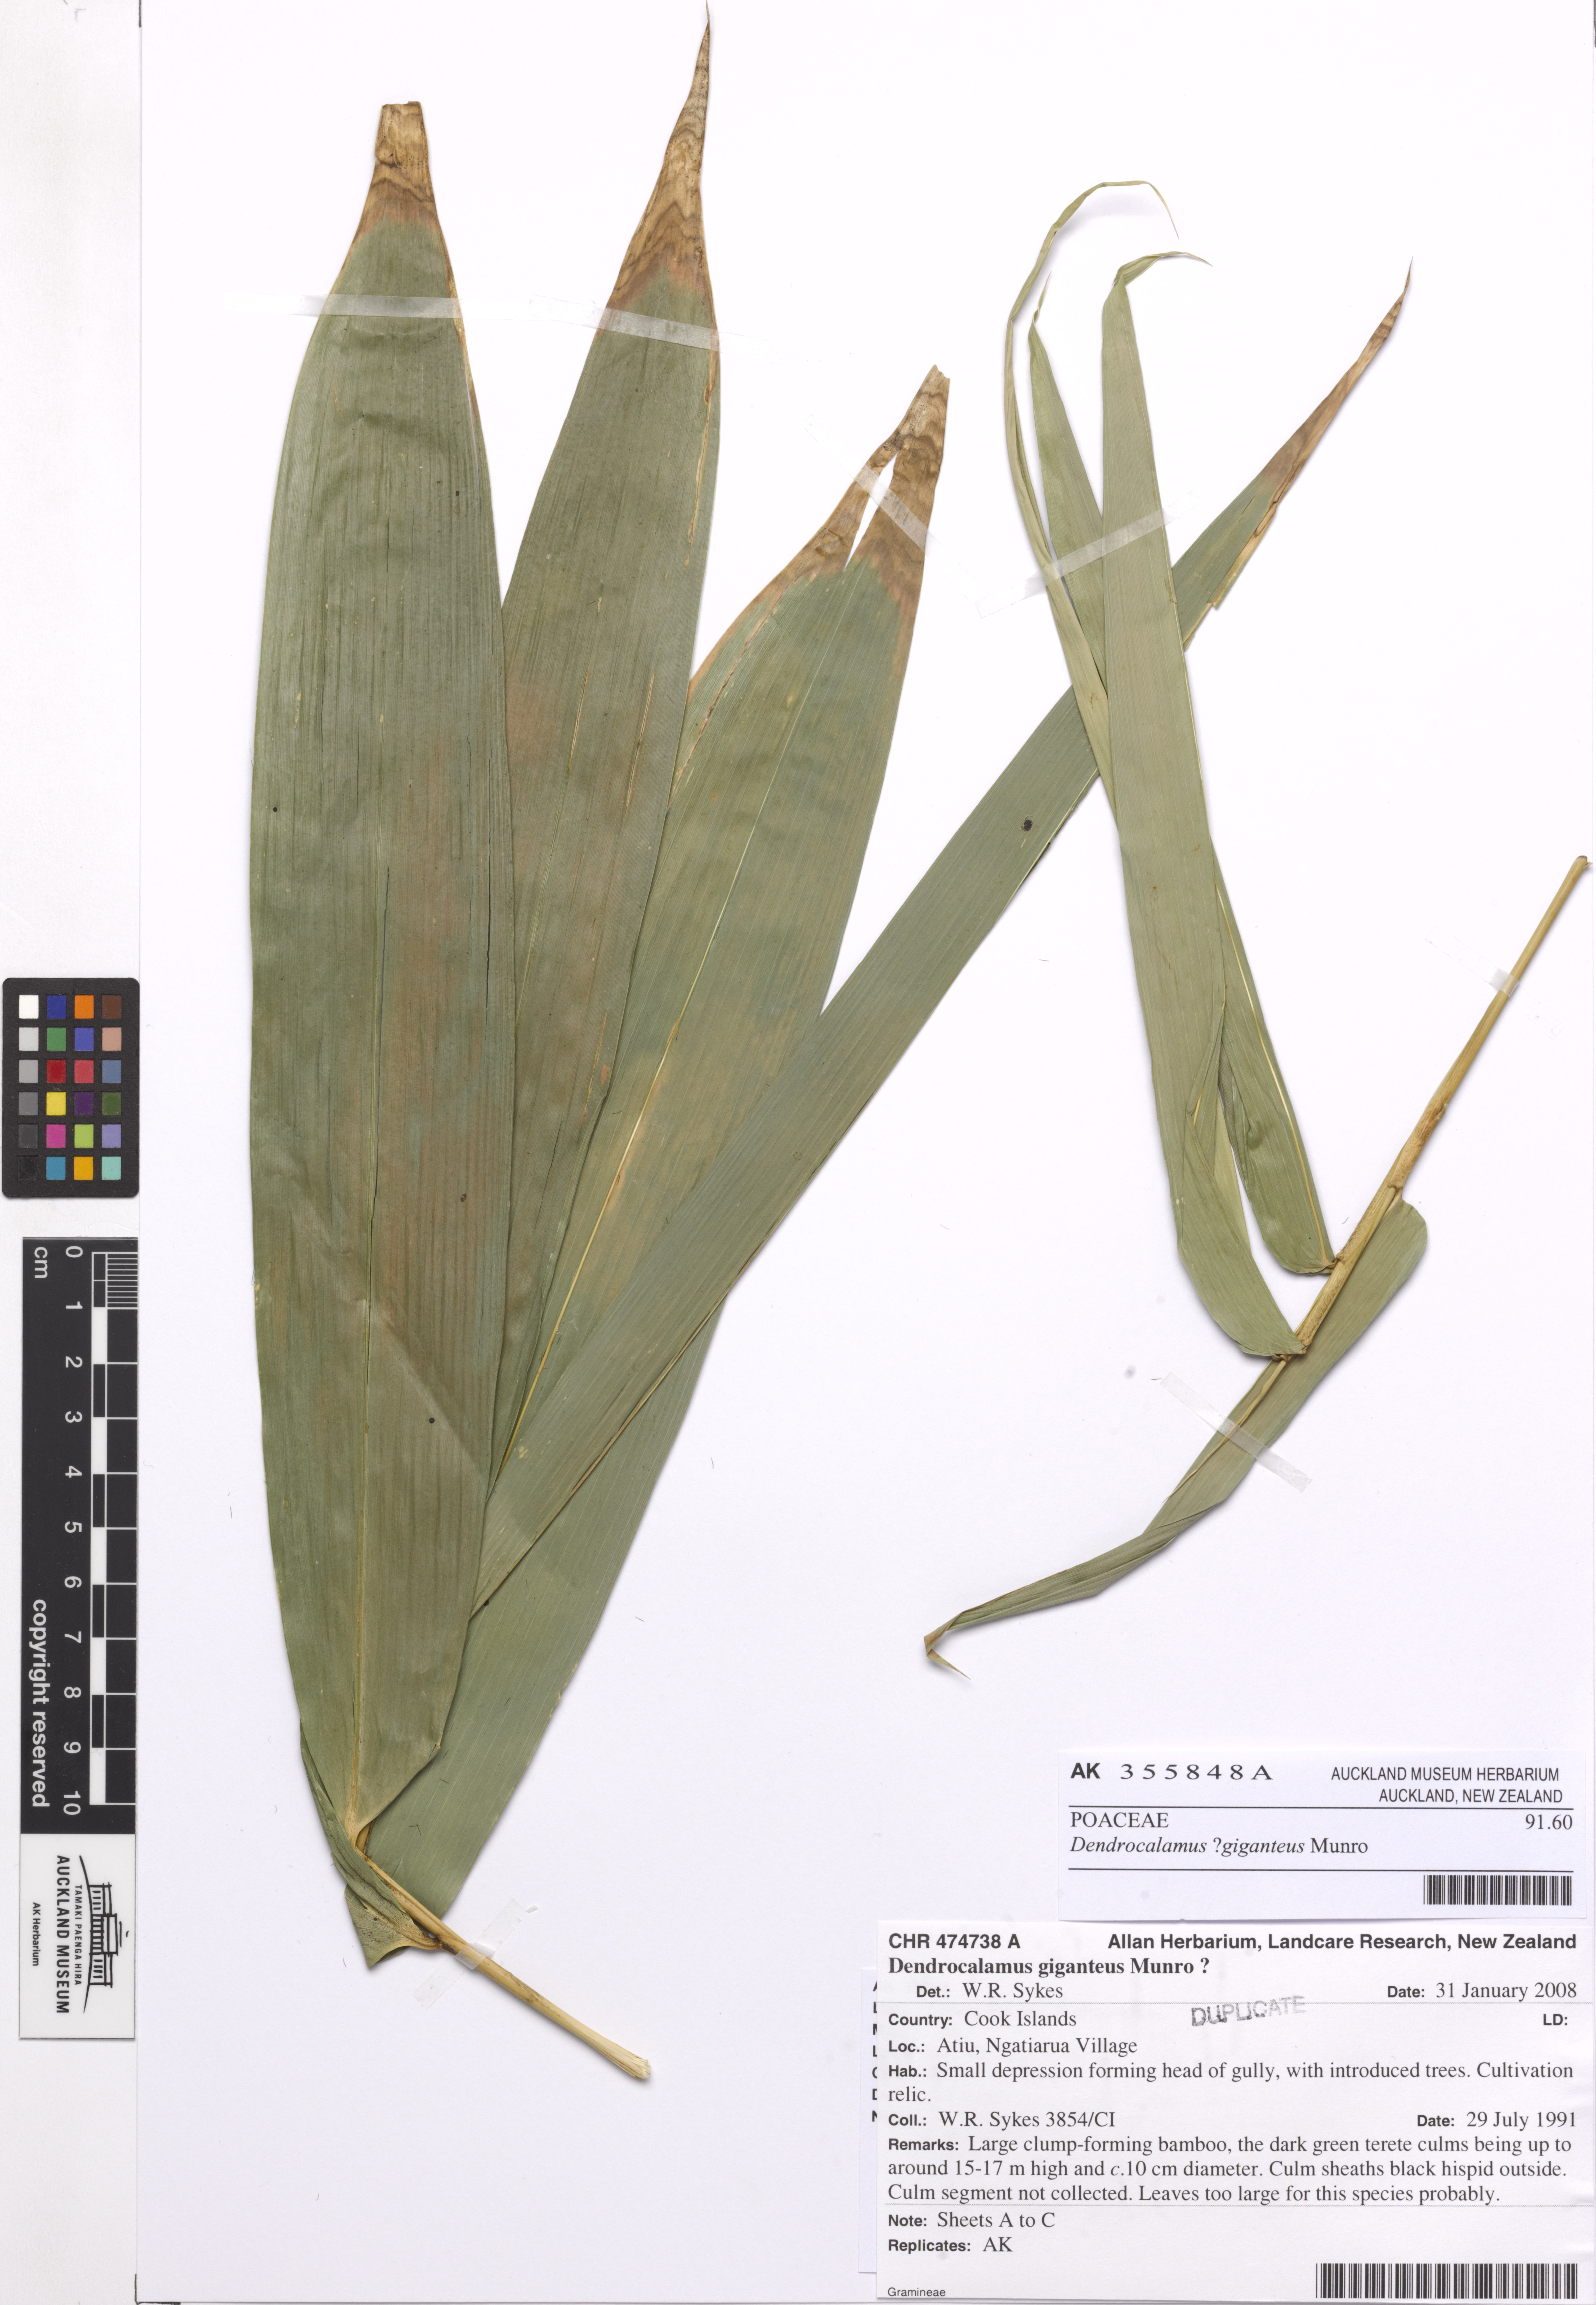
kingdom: Plantae
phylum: Tracheophyta
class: Liliopsida
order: Poales
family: Poaceae
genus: Dendrocalamus
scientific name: Dendrocalamus giganteus
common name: Giant bamboo
